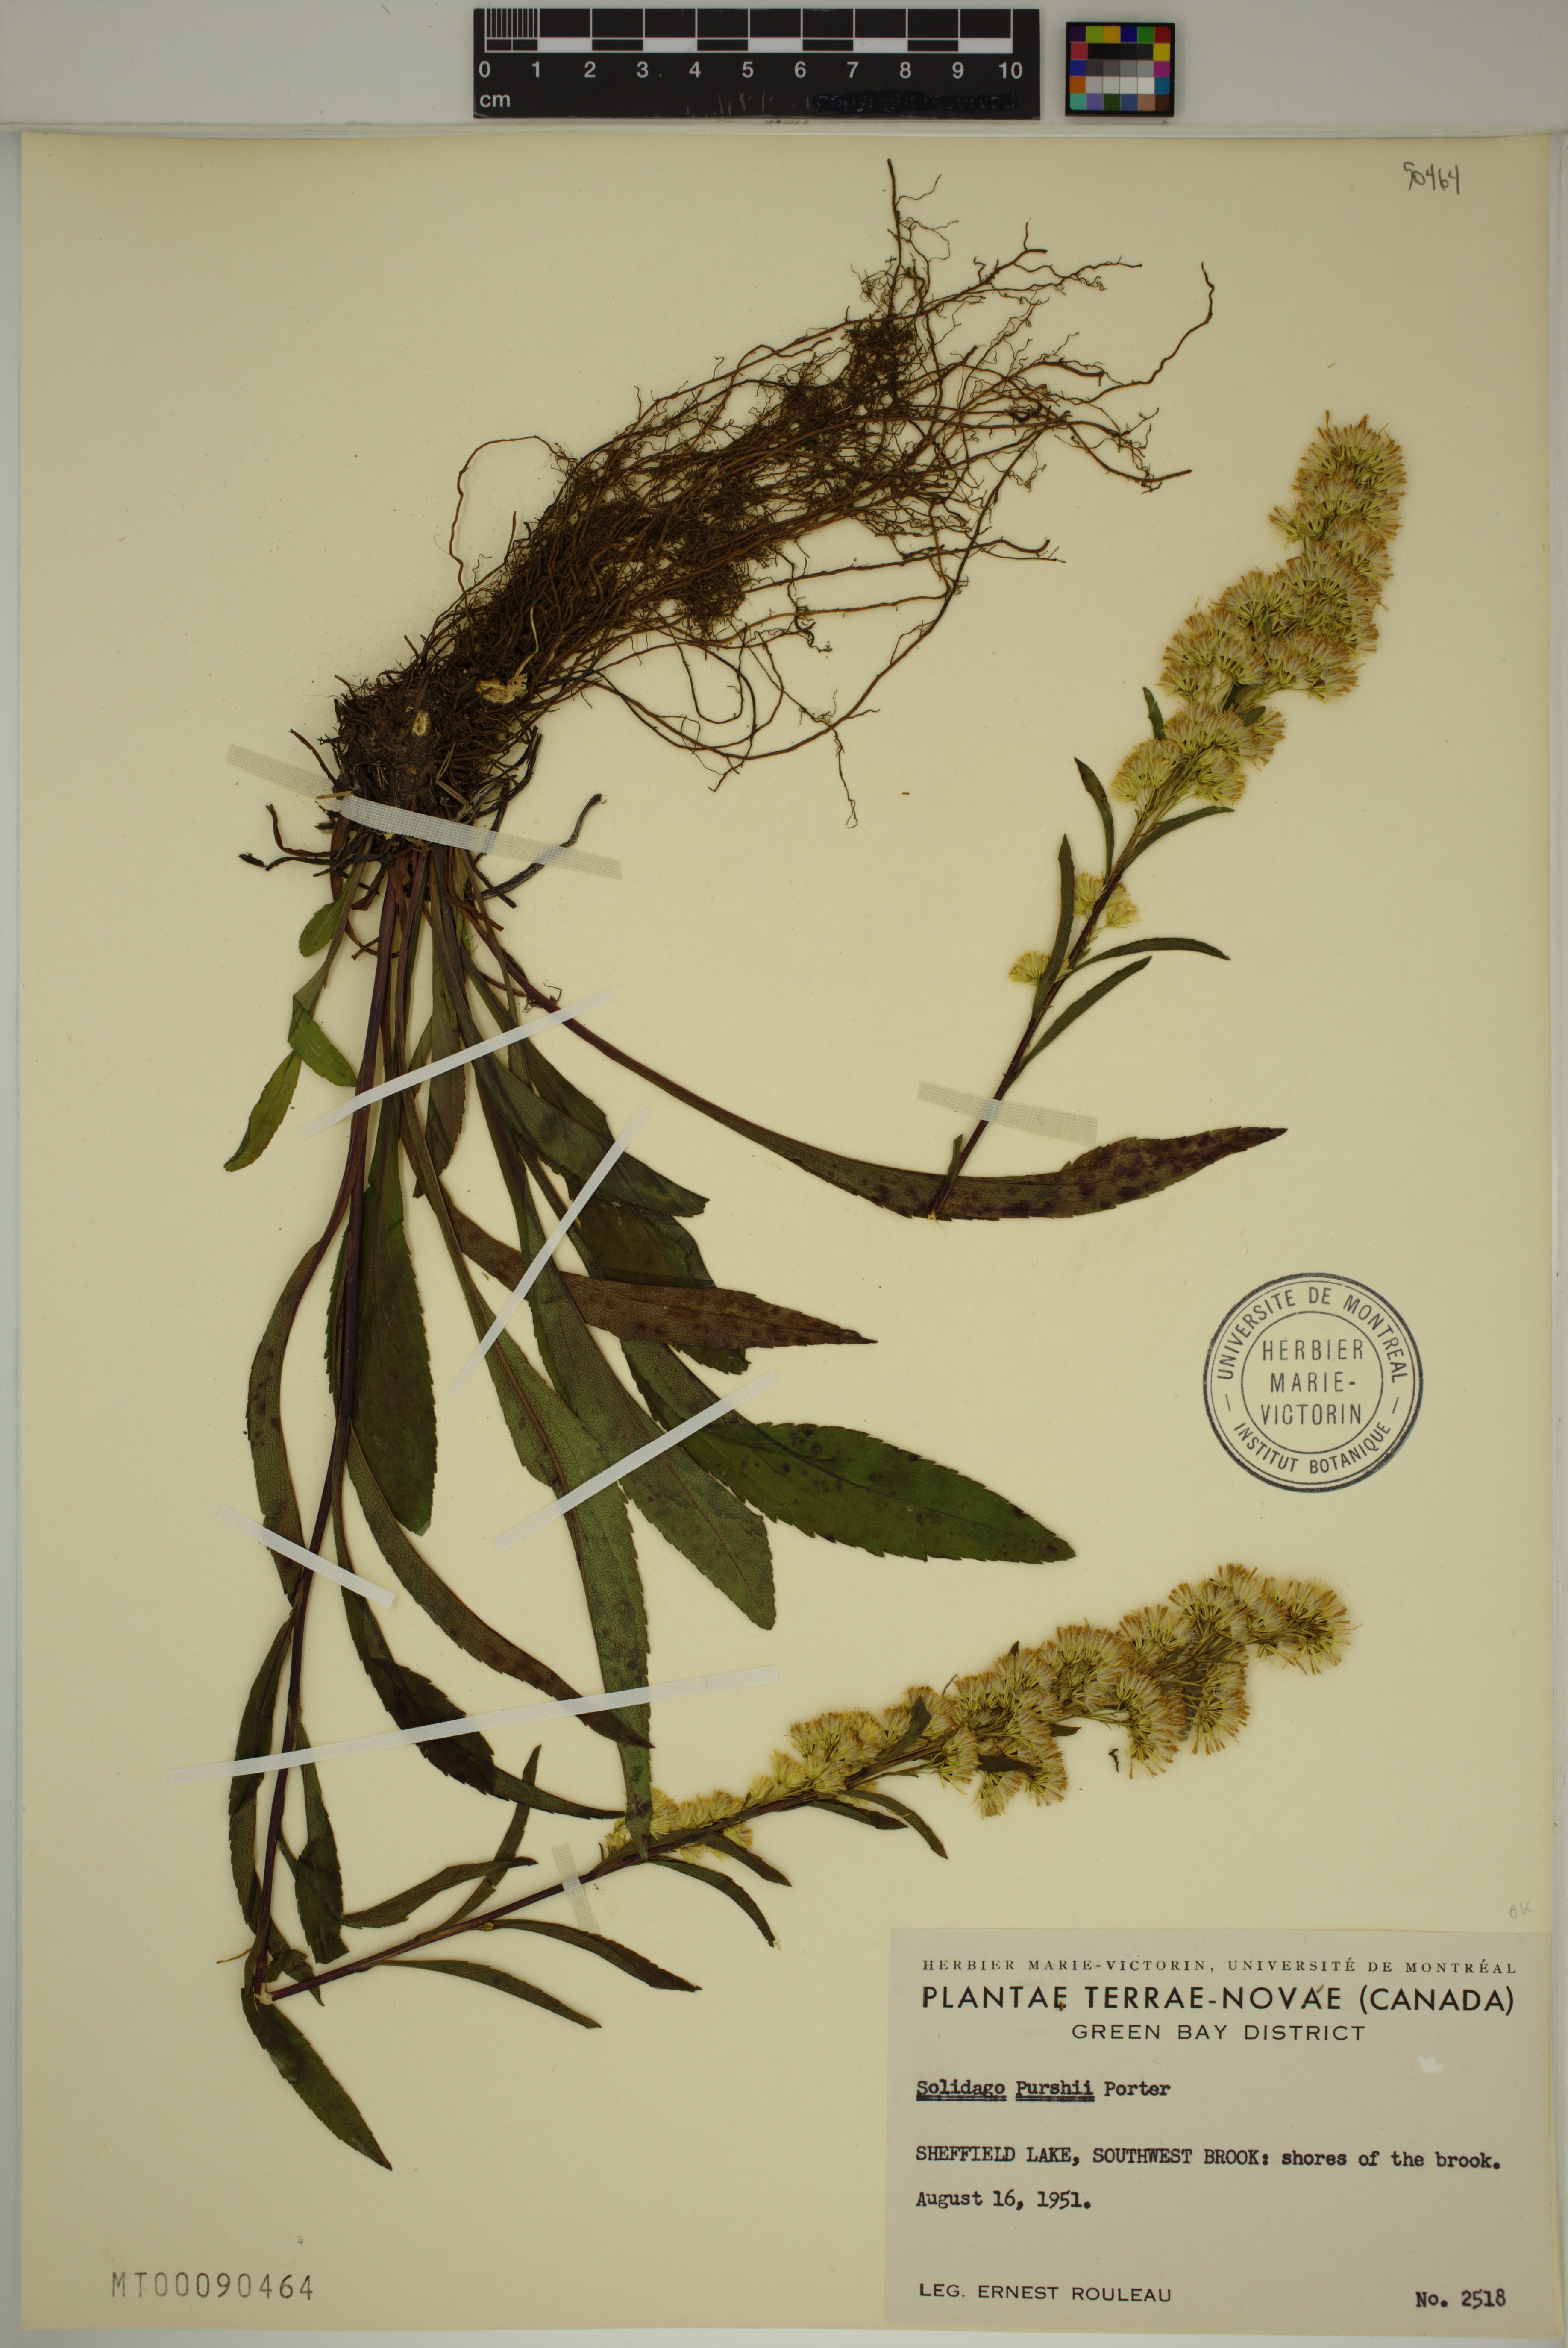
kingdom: Plantae
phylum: Tracheophyta
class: Magnoliopsida
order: Asterales
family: Asteraceae
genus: Solidago
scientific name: Solidago uliginosa
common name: Bog goldenrod
